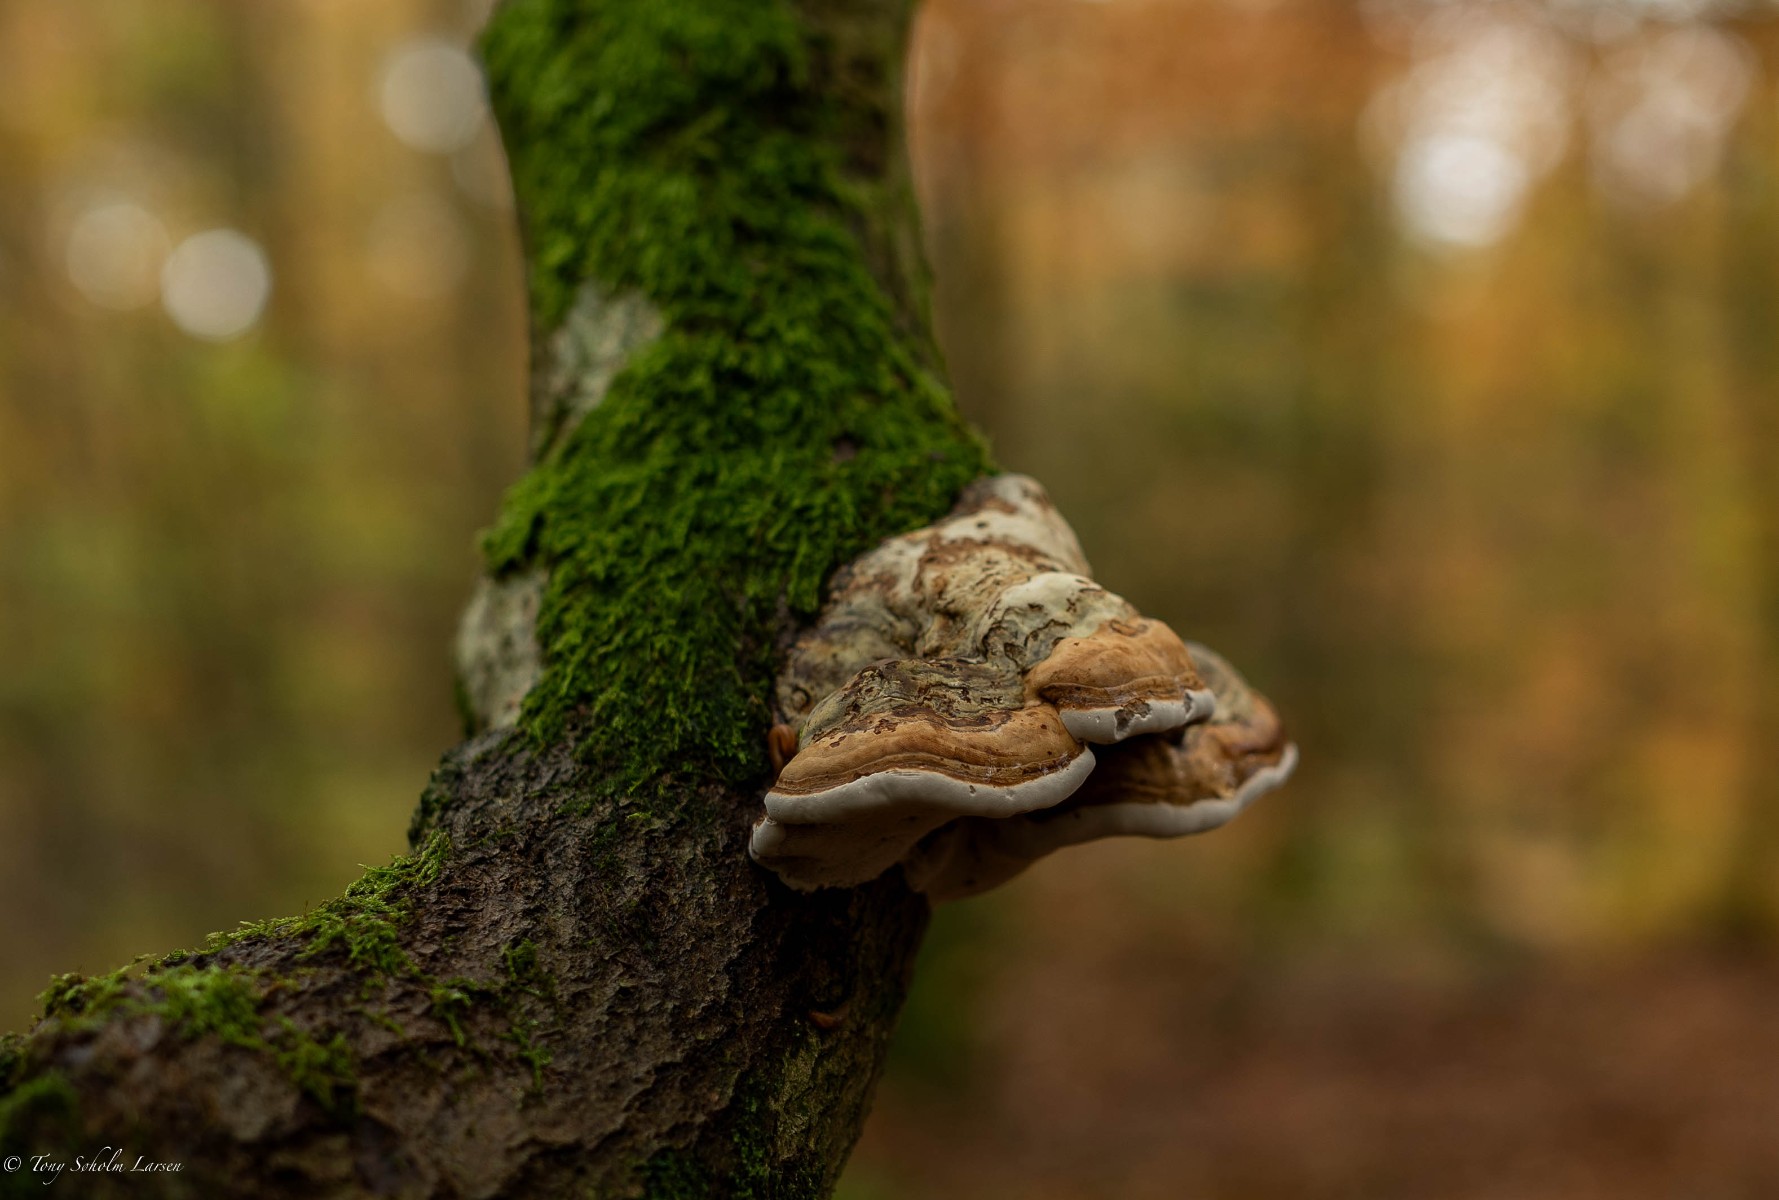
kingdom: Fungi
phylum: Basidiomycota
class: Agaricomycetes
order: Polyporales
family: Polyporaceae
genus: Fomes
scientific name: Fomes fomentarius
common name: tøndersvamp
